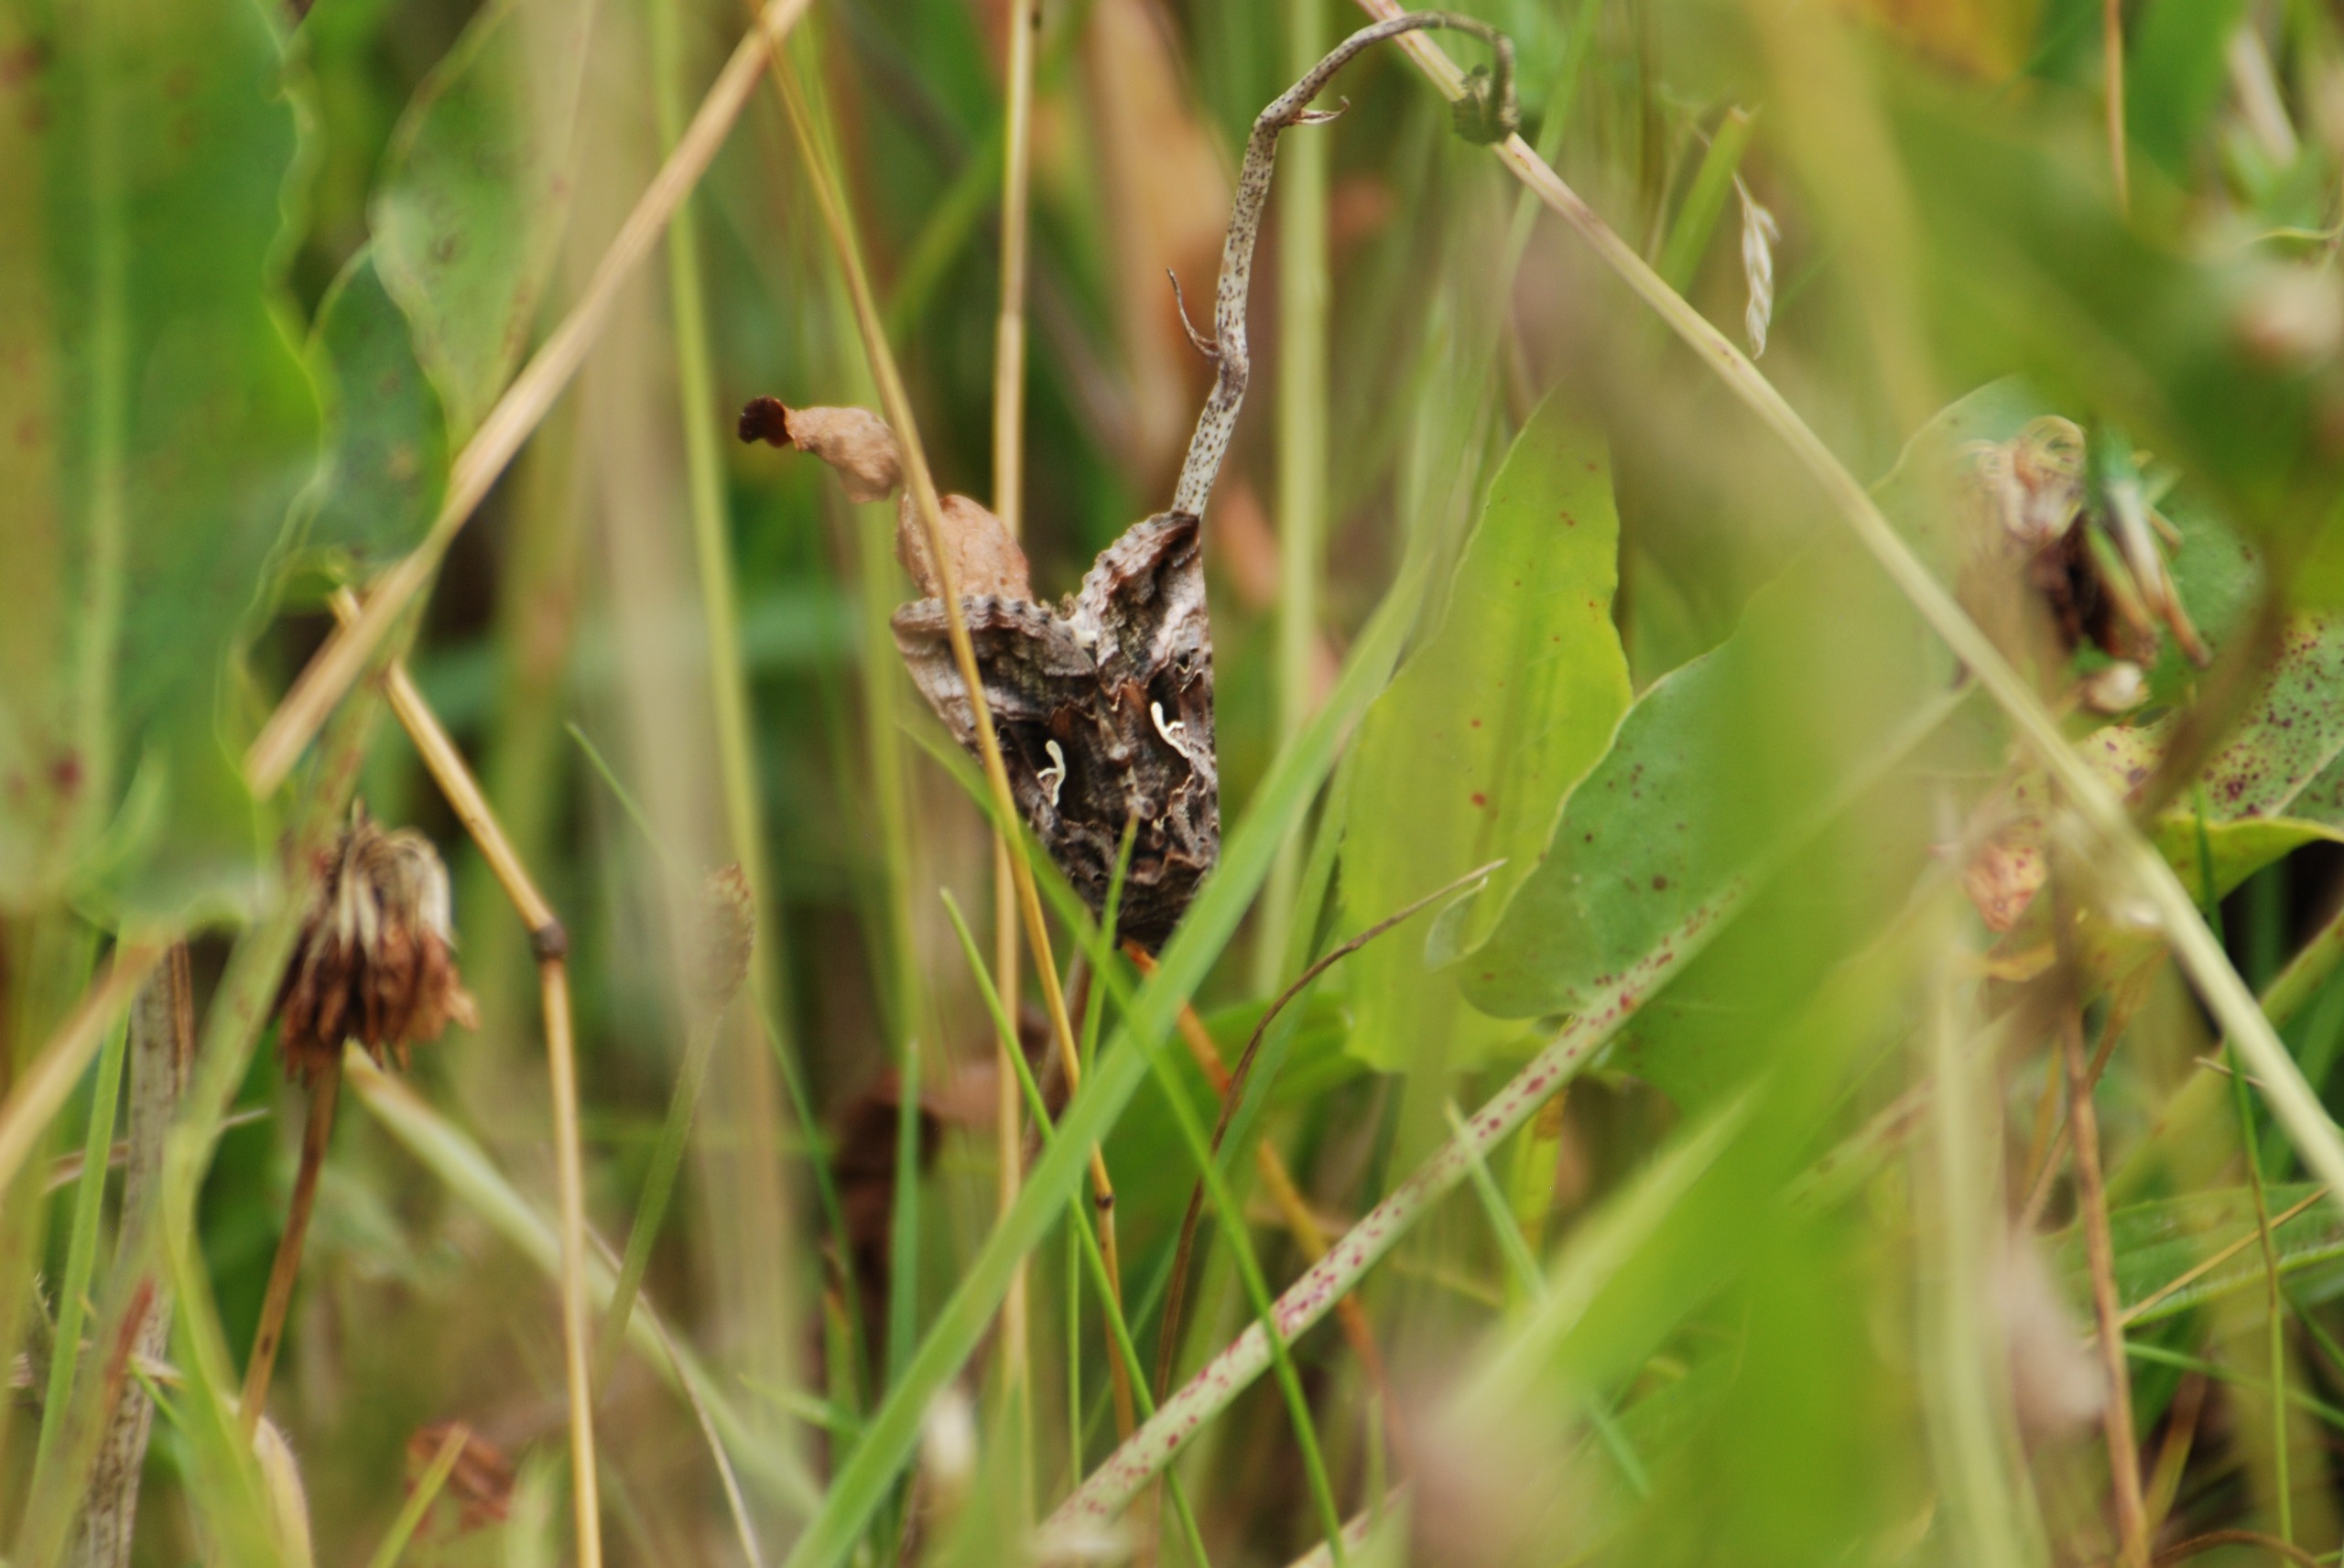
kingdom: Animalia
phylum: Arthropoda
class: Insecta
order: Lepidoptera
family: Noctuidae
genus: Autographa
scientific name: Autographa gamma
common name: Gammaugle
